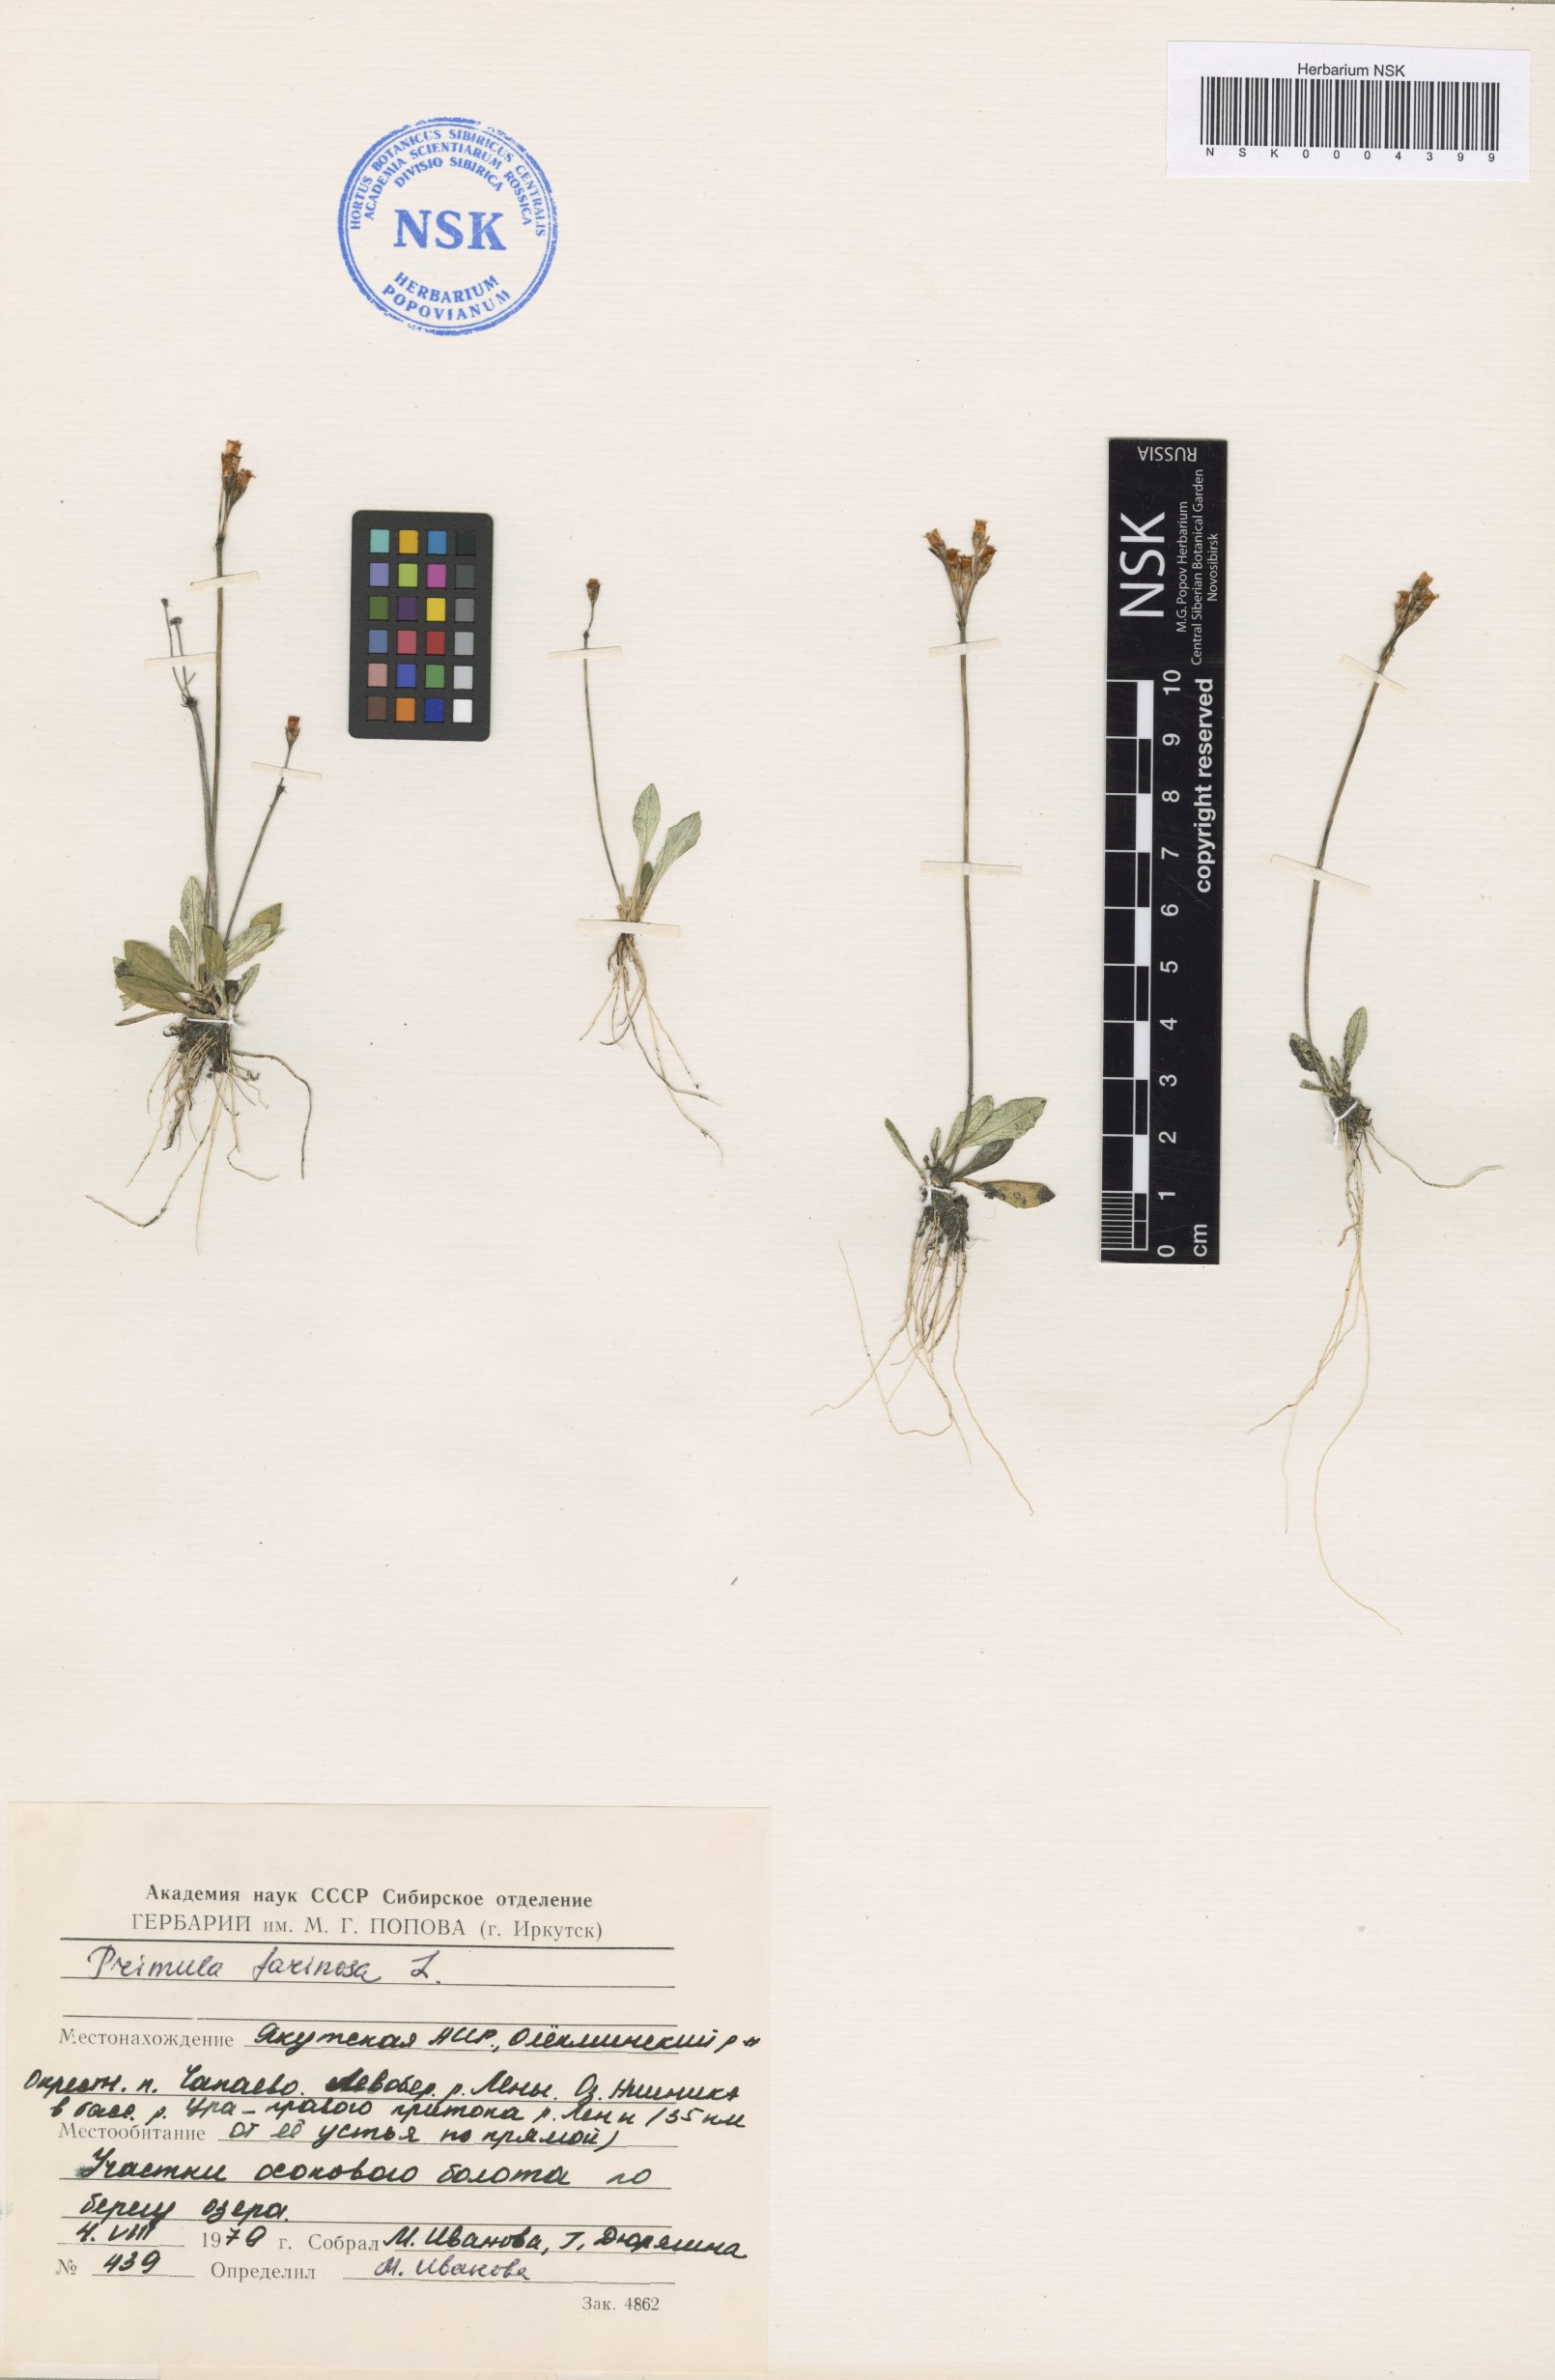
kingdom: Plantae
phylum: Tracheophyta
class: Magnoliopsida
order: Ericales
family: Primulaceae
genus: Primula
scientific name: Primula farinosa
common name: Bird's-eye primrose
